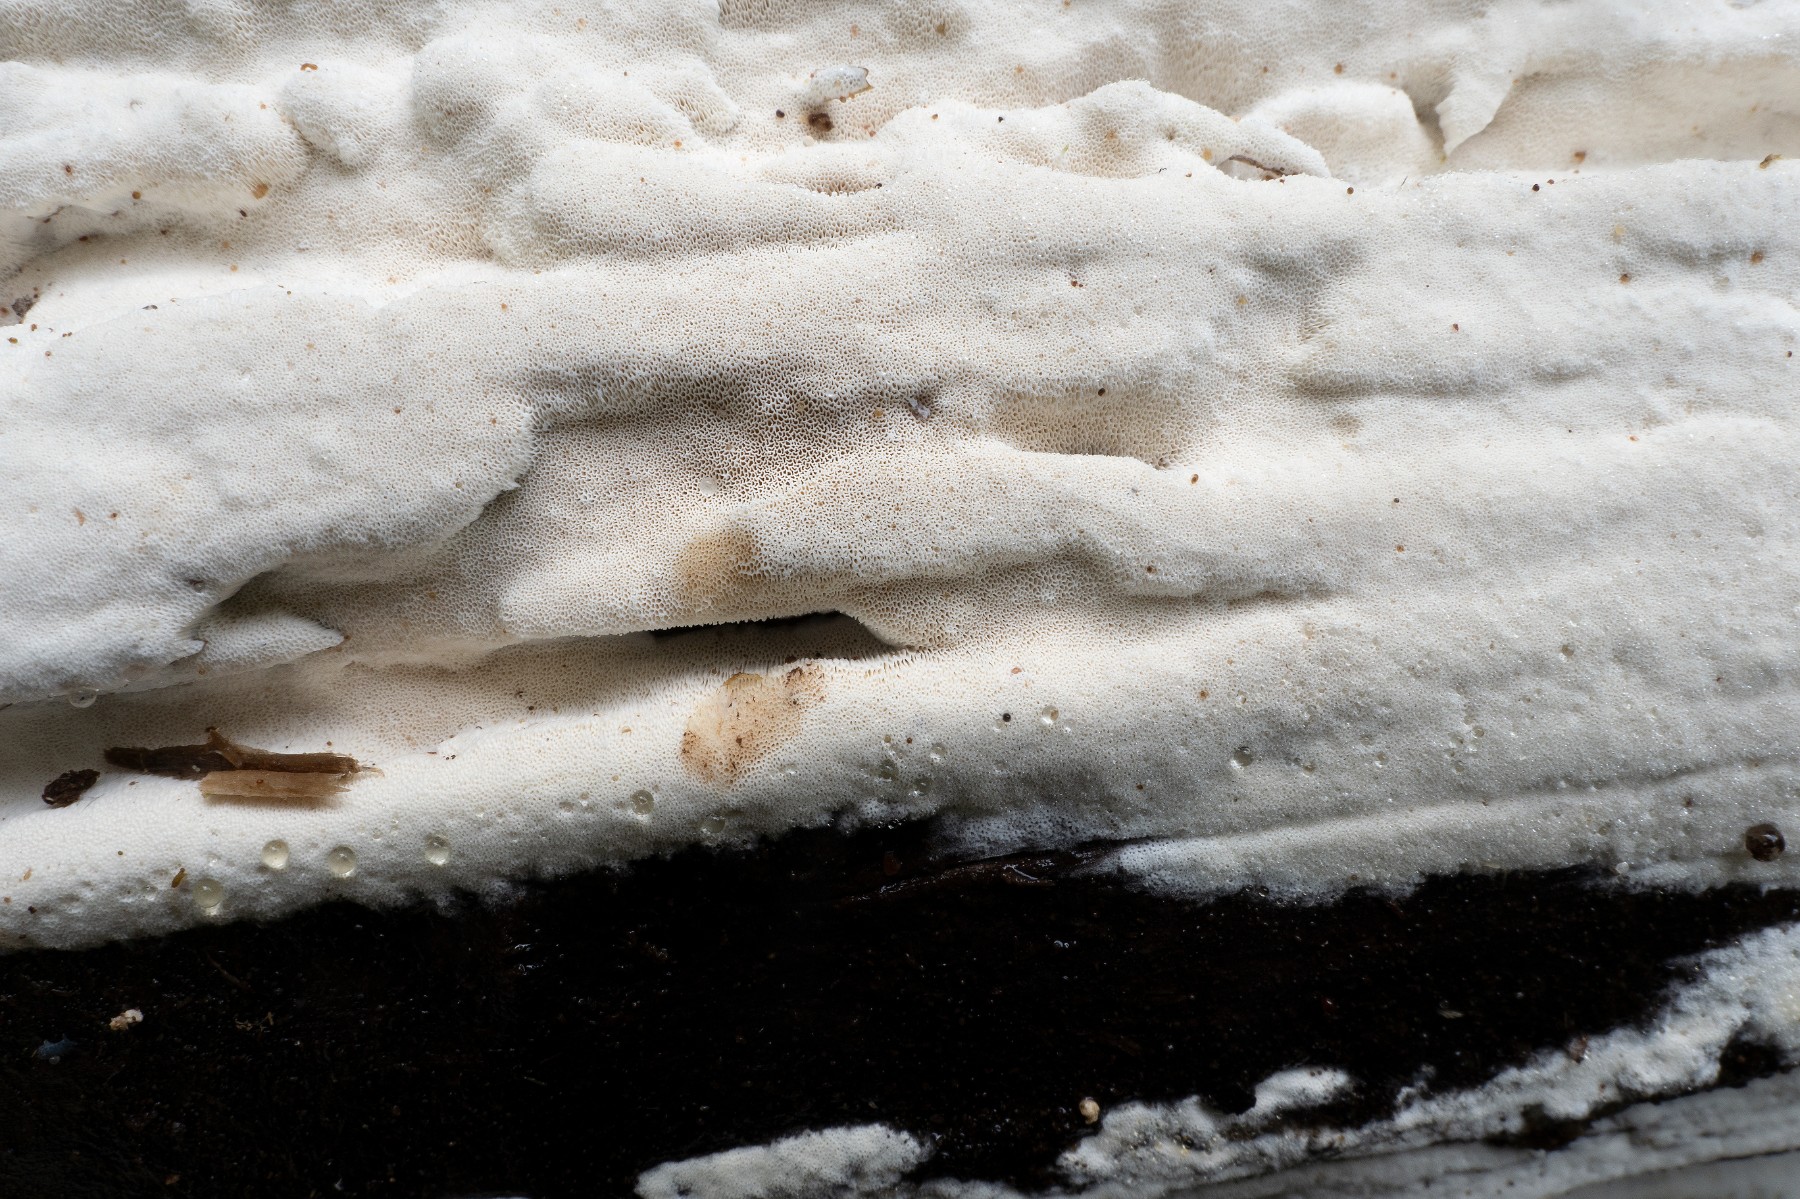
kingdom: Fungi
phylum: Basidiomycota
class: Agaricomycetes
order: Hymenochaetales
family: Oxyporaceae
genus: Oxyporus
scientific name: Oxyporus obducens
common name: skorpe-trylleporesvamp
